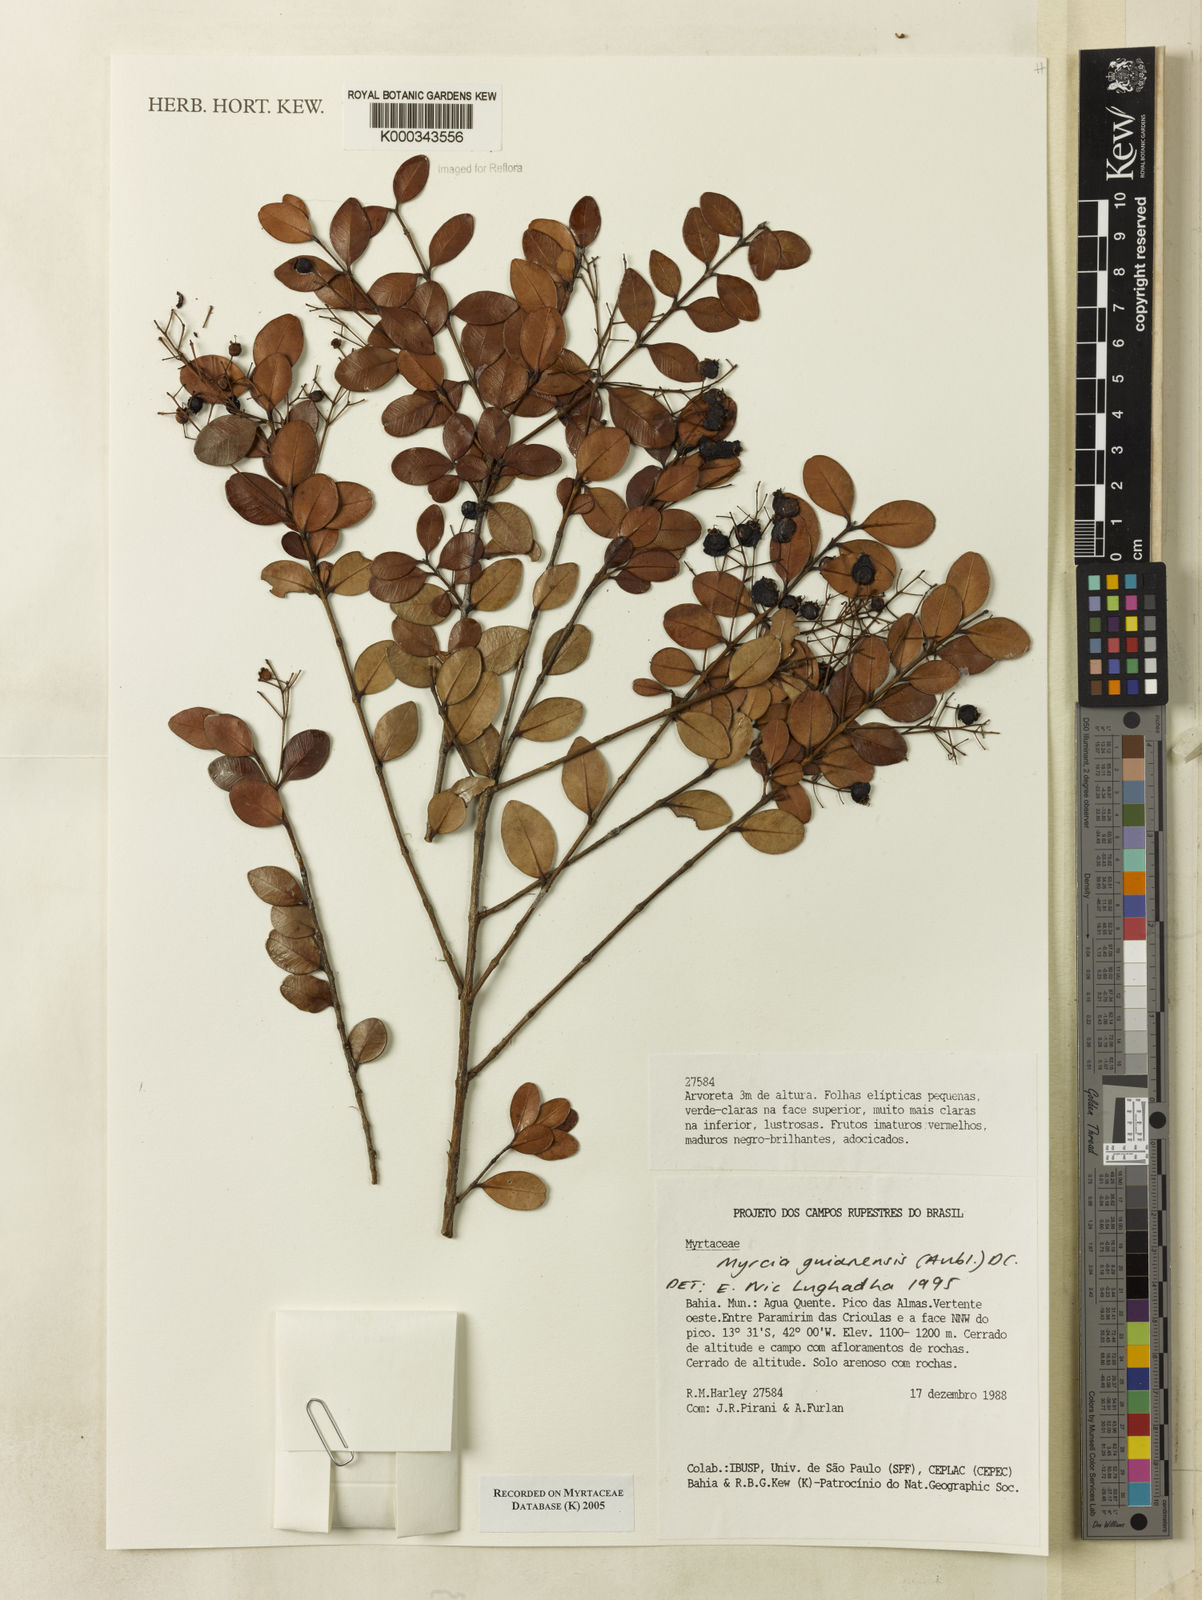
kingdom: Plantae
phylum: Tracheophyta
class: Magnoliopsida
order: Myrtales
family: Myrtaceae
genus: Myrcia
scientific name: Myrcia guianensis
